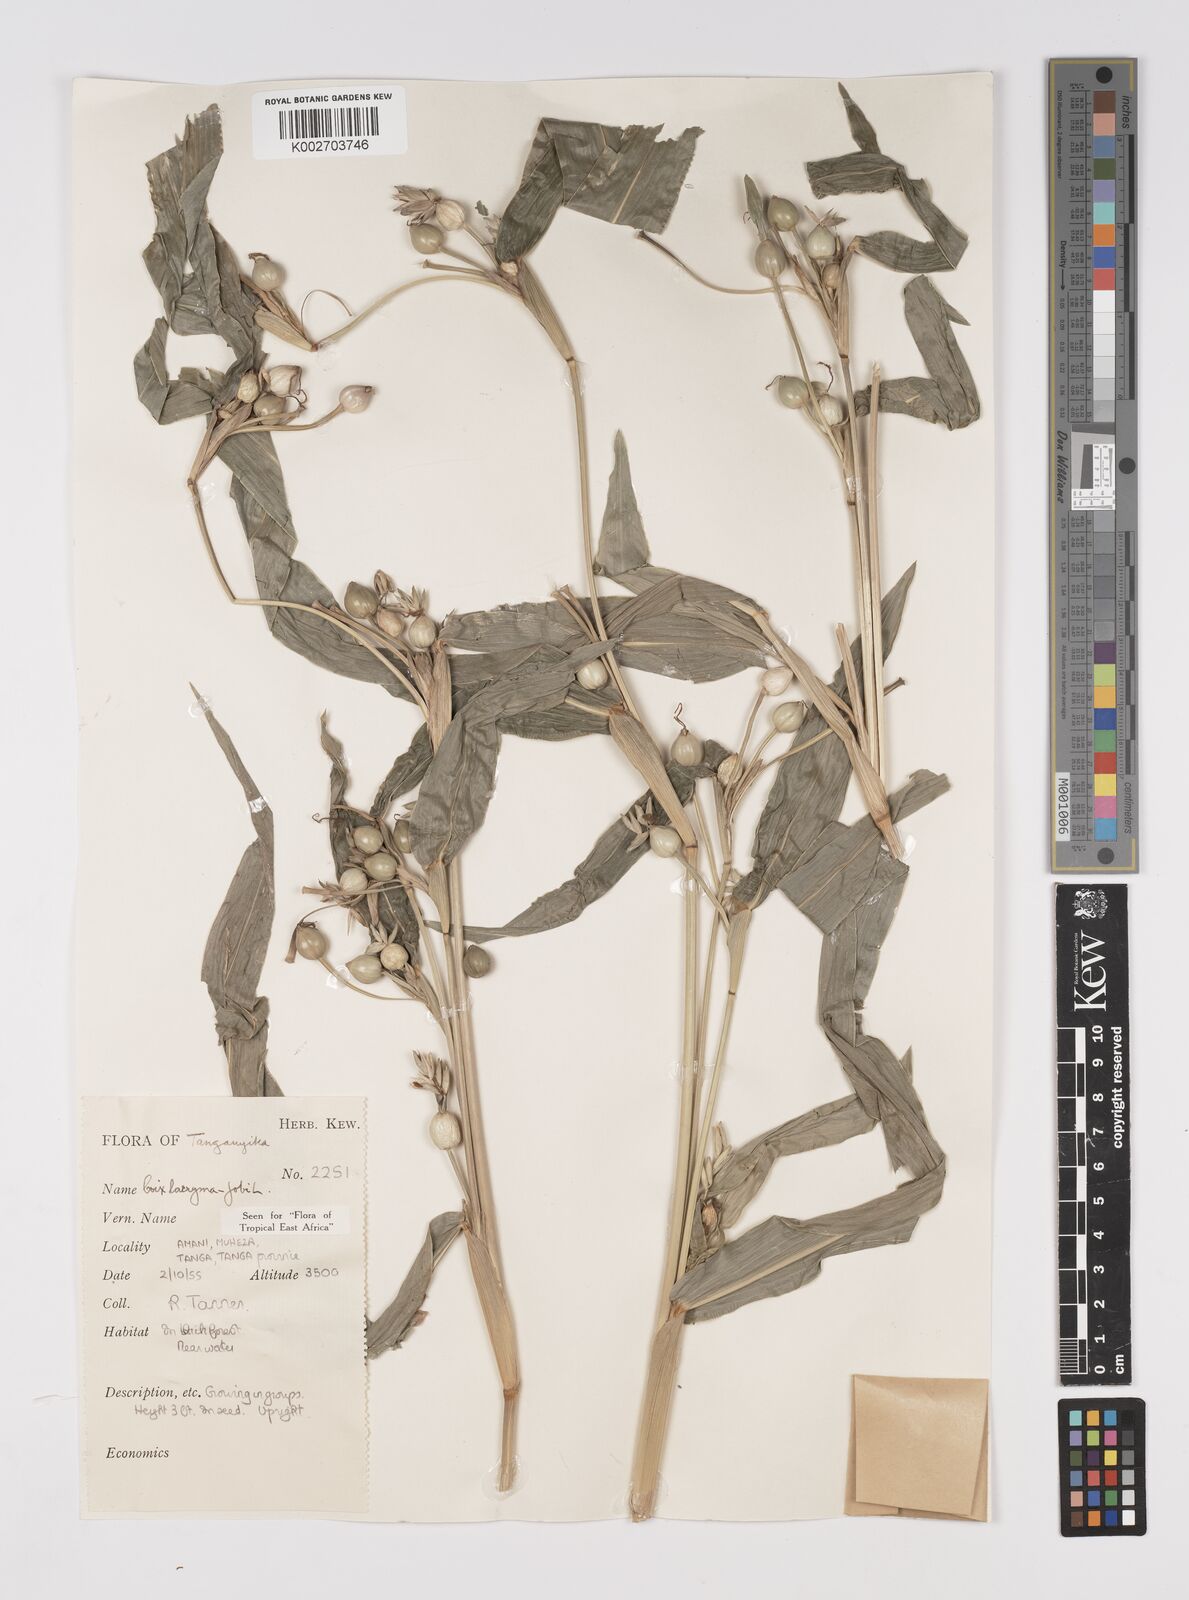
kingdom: Plantae
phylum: Tracheophyta
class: Liliopsida
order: Poales
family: Poaceae
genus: Coix
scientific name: Coix lacryma-jobi
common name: Job's tears
